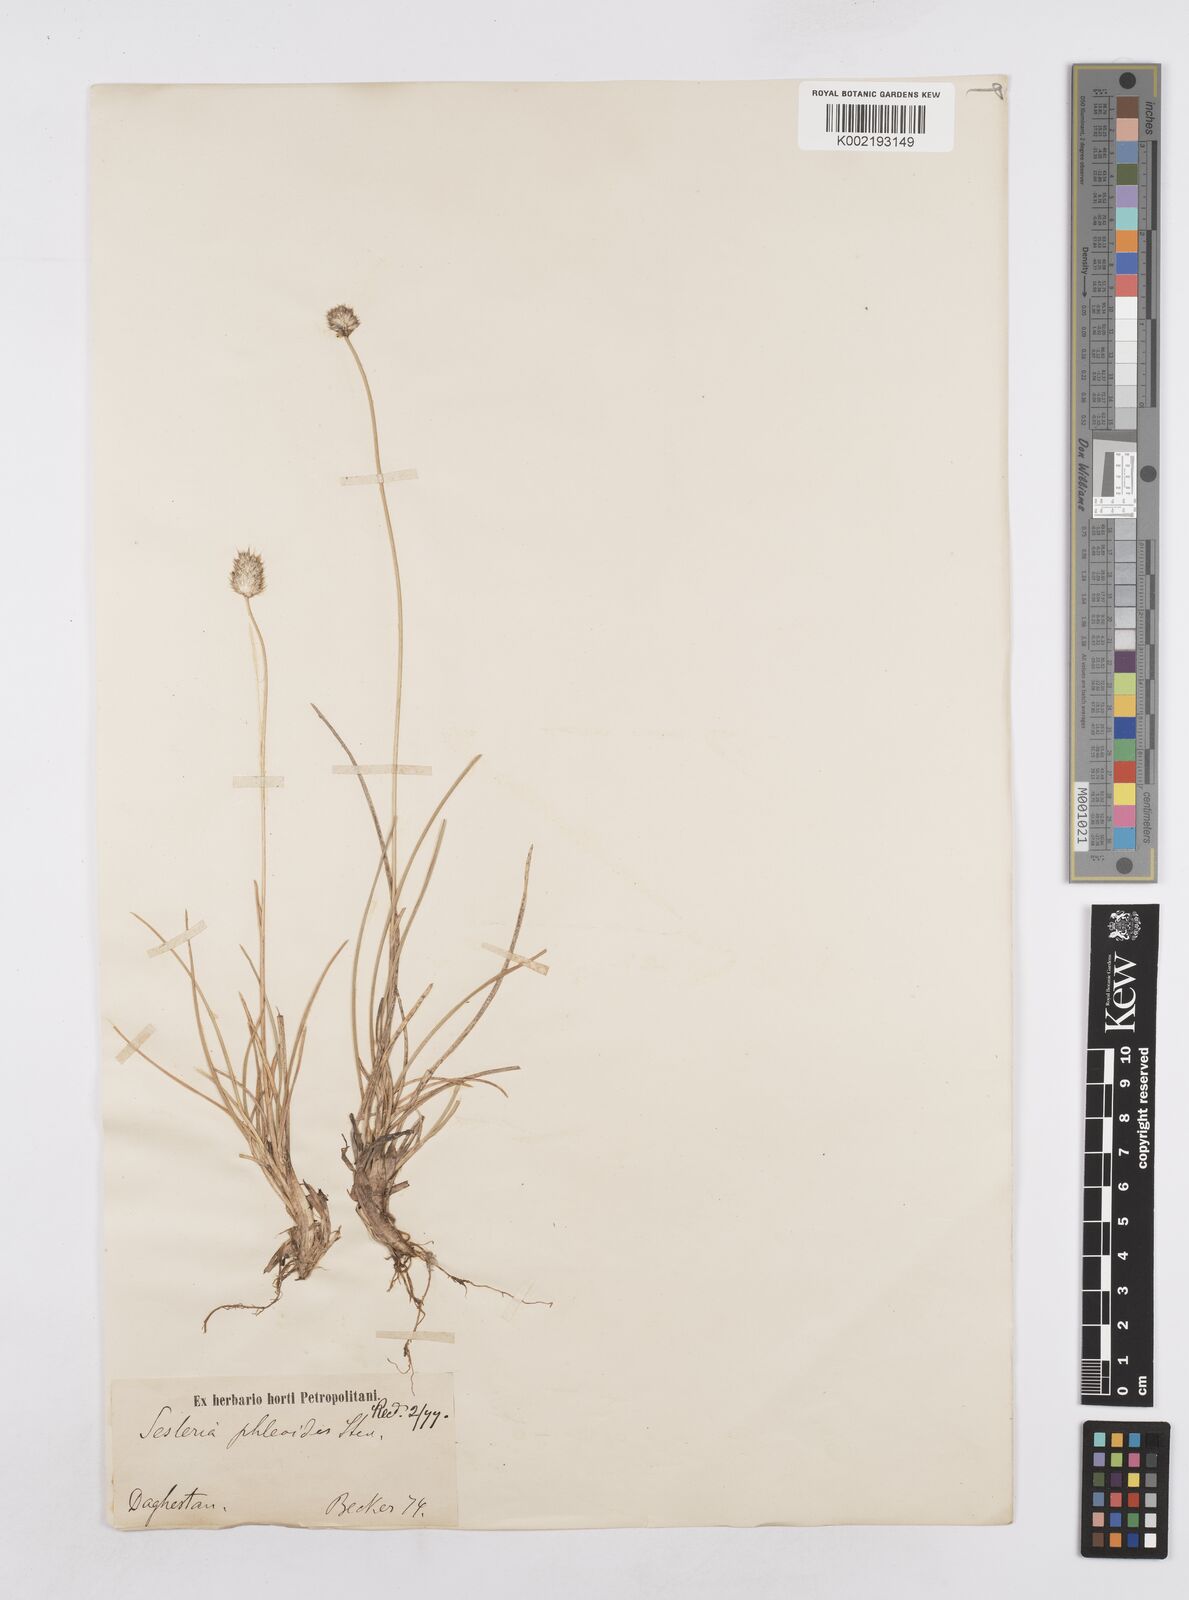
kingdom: Plantae
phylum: Tracheophyta
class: Liliopsida
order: Poales
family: Poaceae
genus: Sesleria
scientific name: Sesleria phleoides
